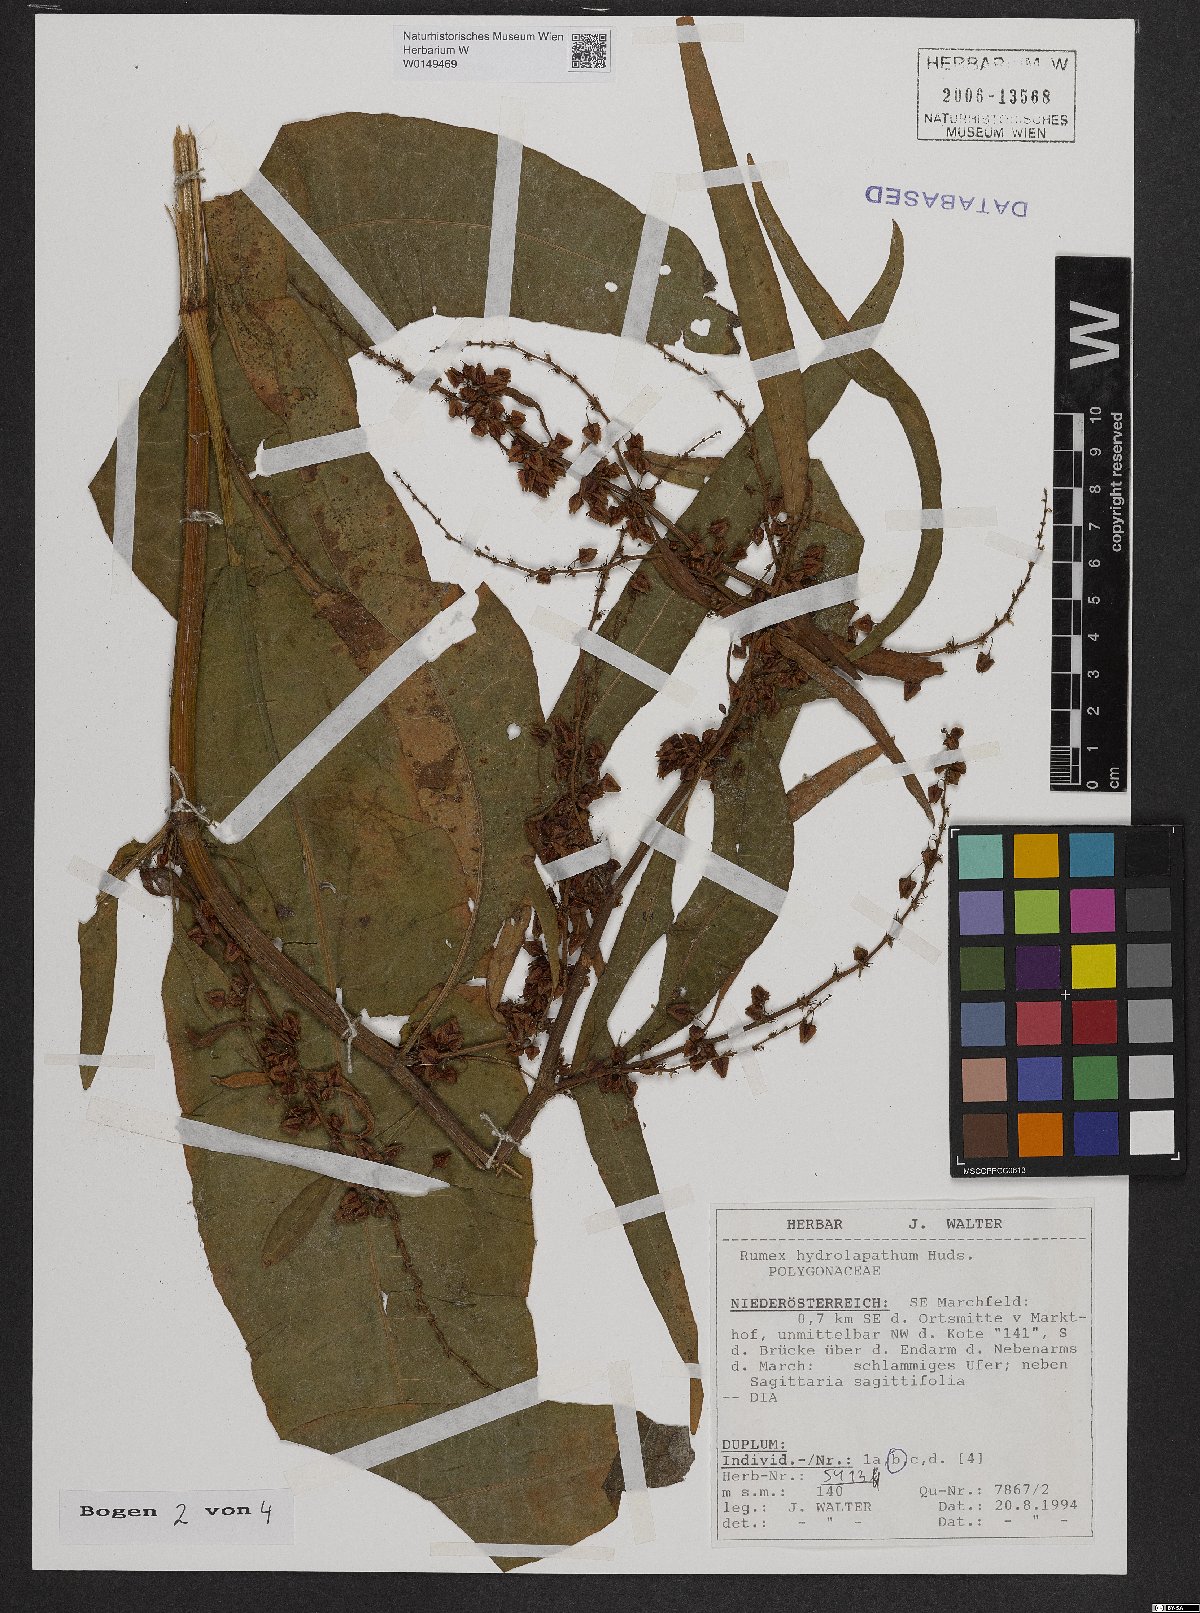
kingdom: Plantae
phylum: Tracheophyta
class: Magnoliopsida
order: Caryophyllales
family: Polygonaceae
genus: Rumex
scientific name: Rumex hydrolapathum
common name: Water dock
